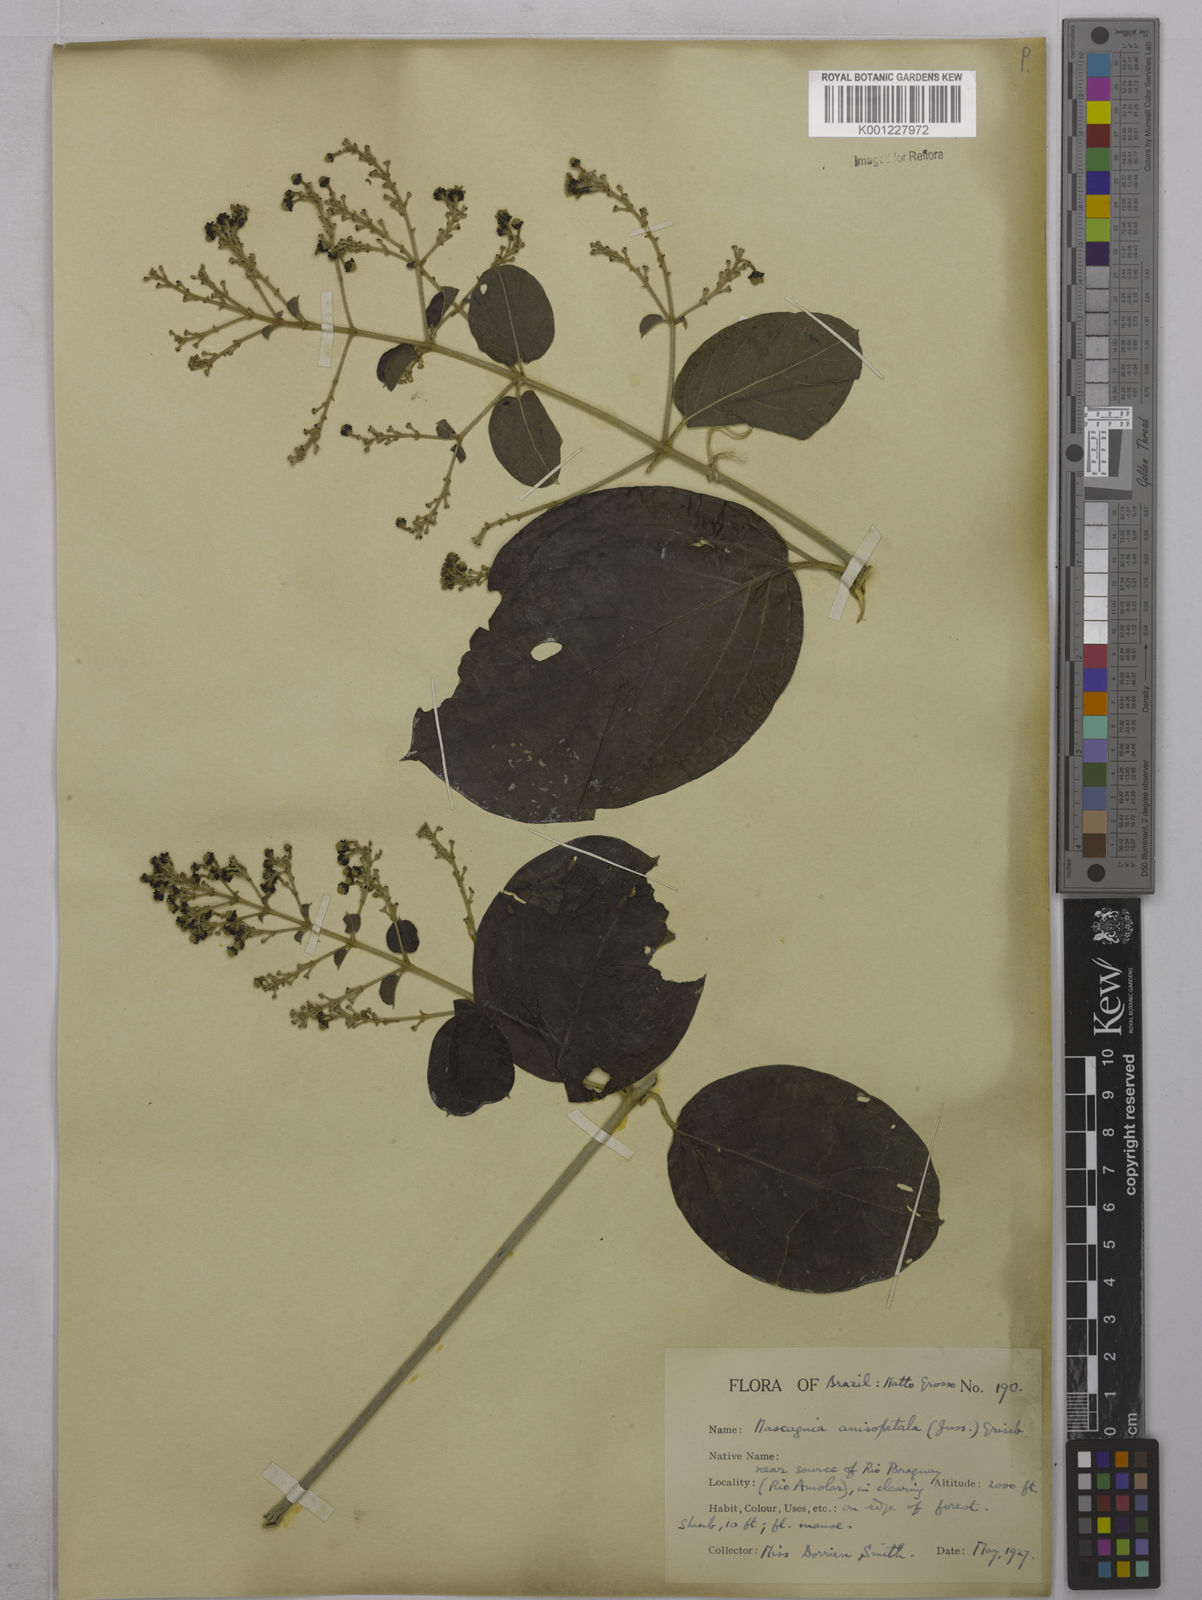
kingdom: Plantae
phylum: Tracheophyta
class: Magnoliopsida
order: Malpighiales
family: Malpighiaceae
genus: Alicia
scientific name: Alicia anisopetala
